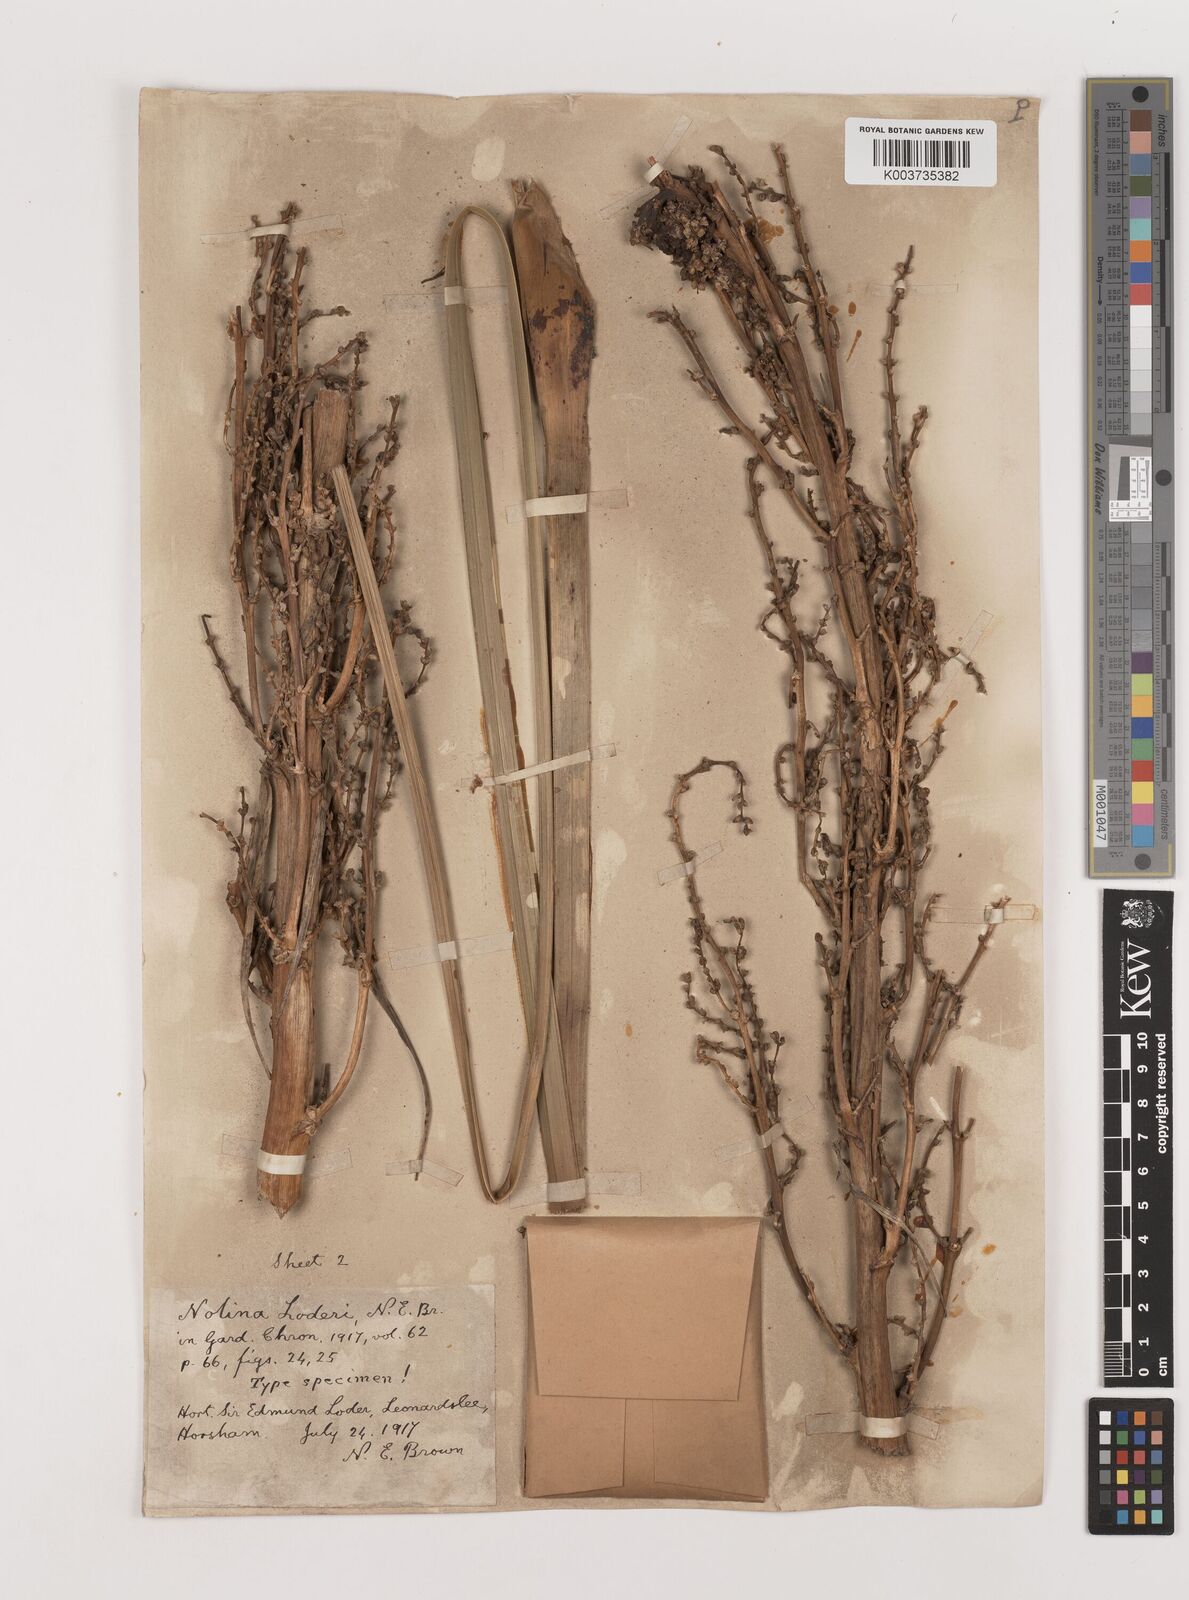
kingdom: Plantae
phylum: Tracheophyta
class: Liliopsida
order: Asparagales
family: Asparagaceae
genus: Nolina
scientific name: Nolina loderi
